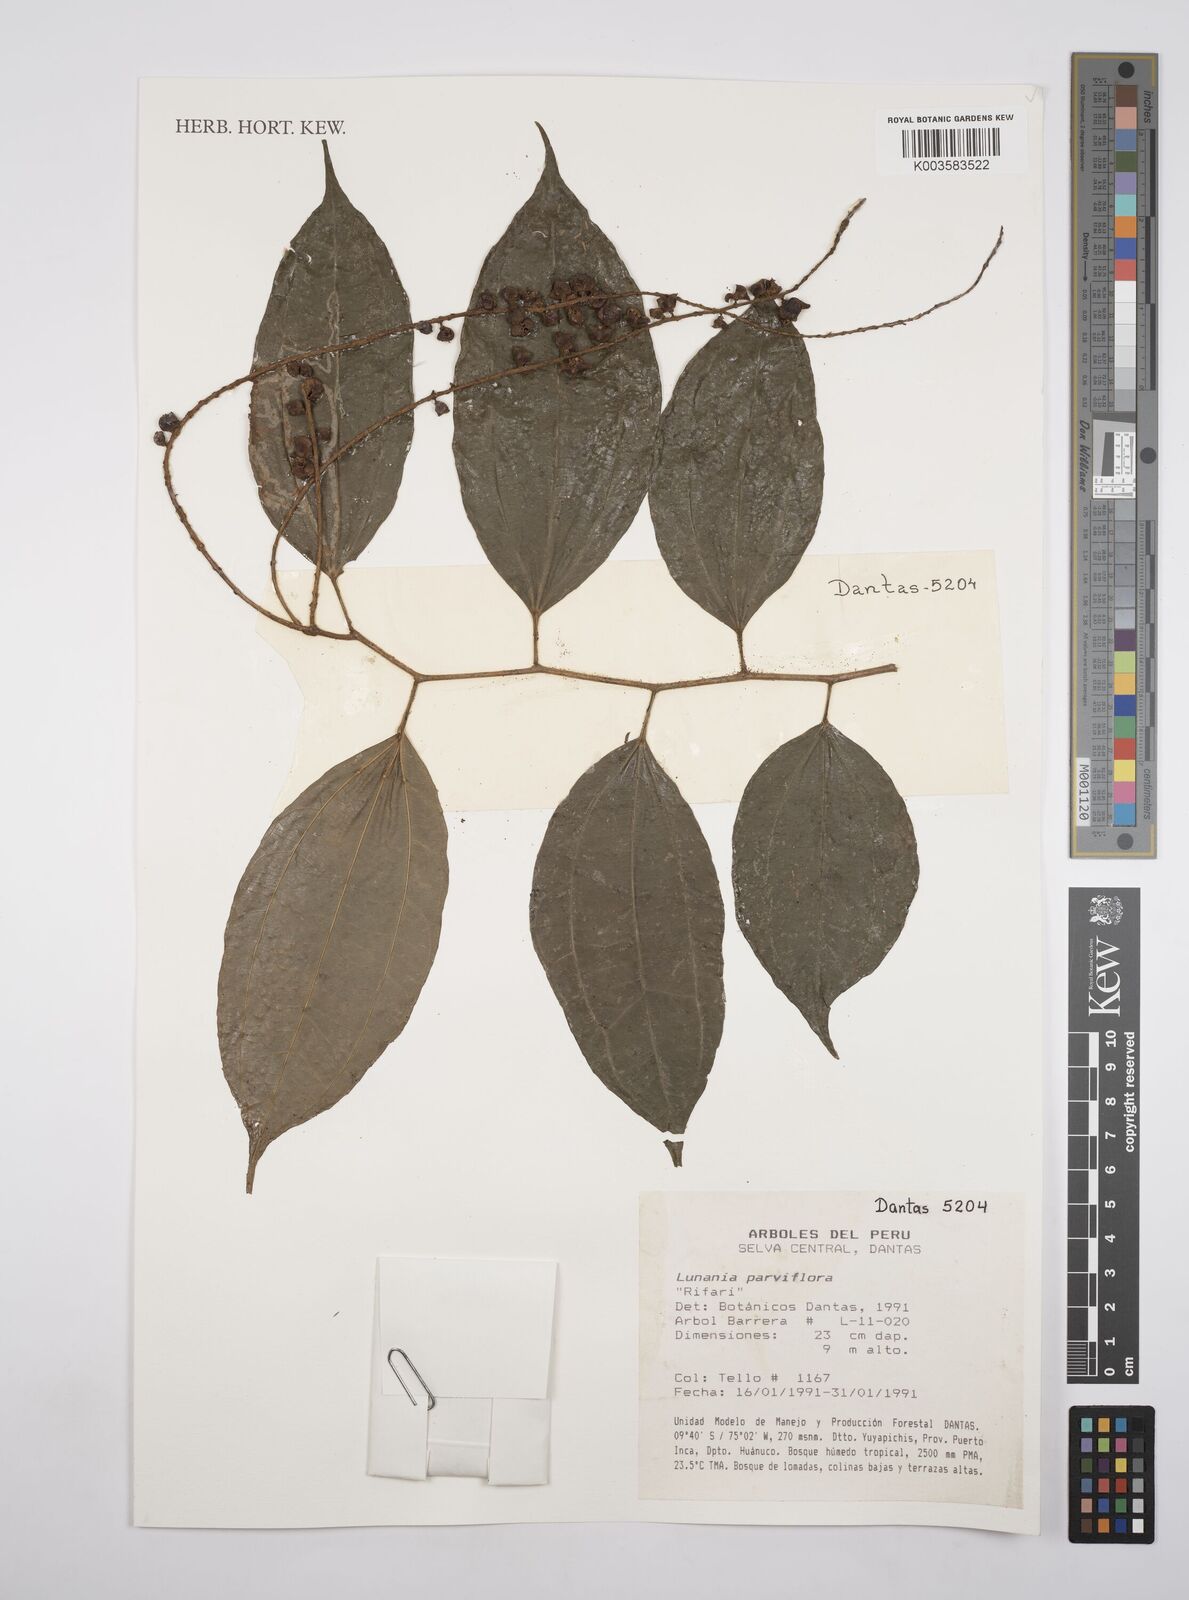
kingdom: Plantae
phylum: Tracheophyta
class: Magnoliopsida
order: Malpighiales
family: Salicaceae
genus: Lunania
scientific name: Lunania parviflora
